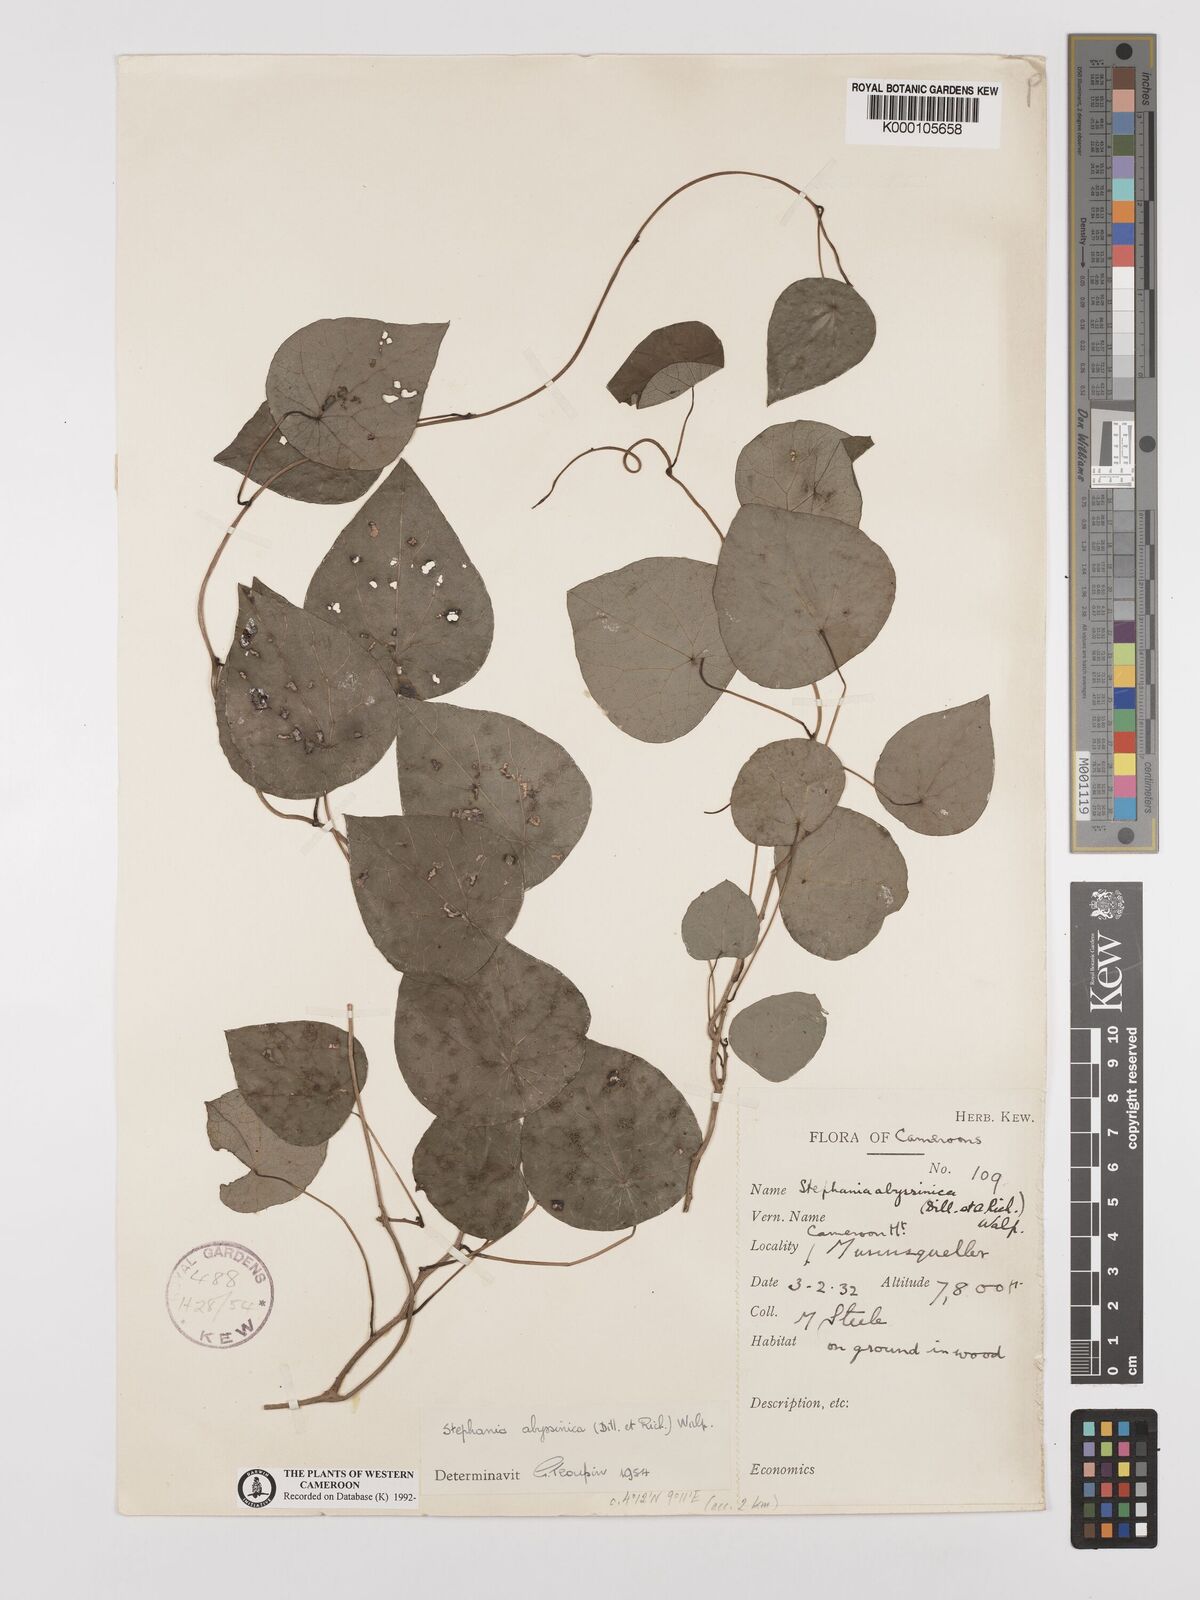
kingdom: Plantae
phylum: Tracheophyta
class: Magnoliopsida
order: Ranunculales
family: Menispermaceae
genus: Stephania
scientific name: Stephania abyssinica
